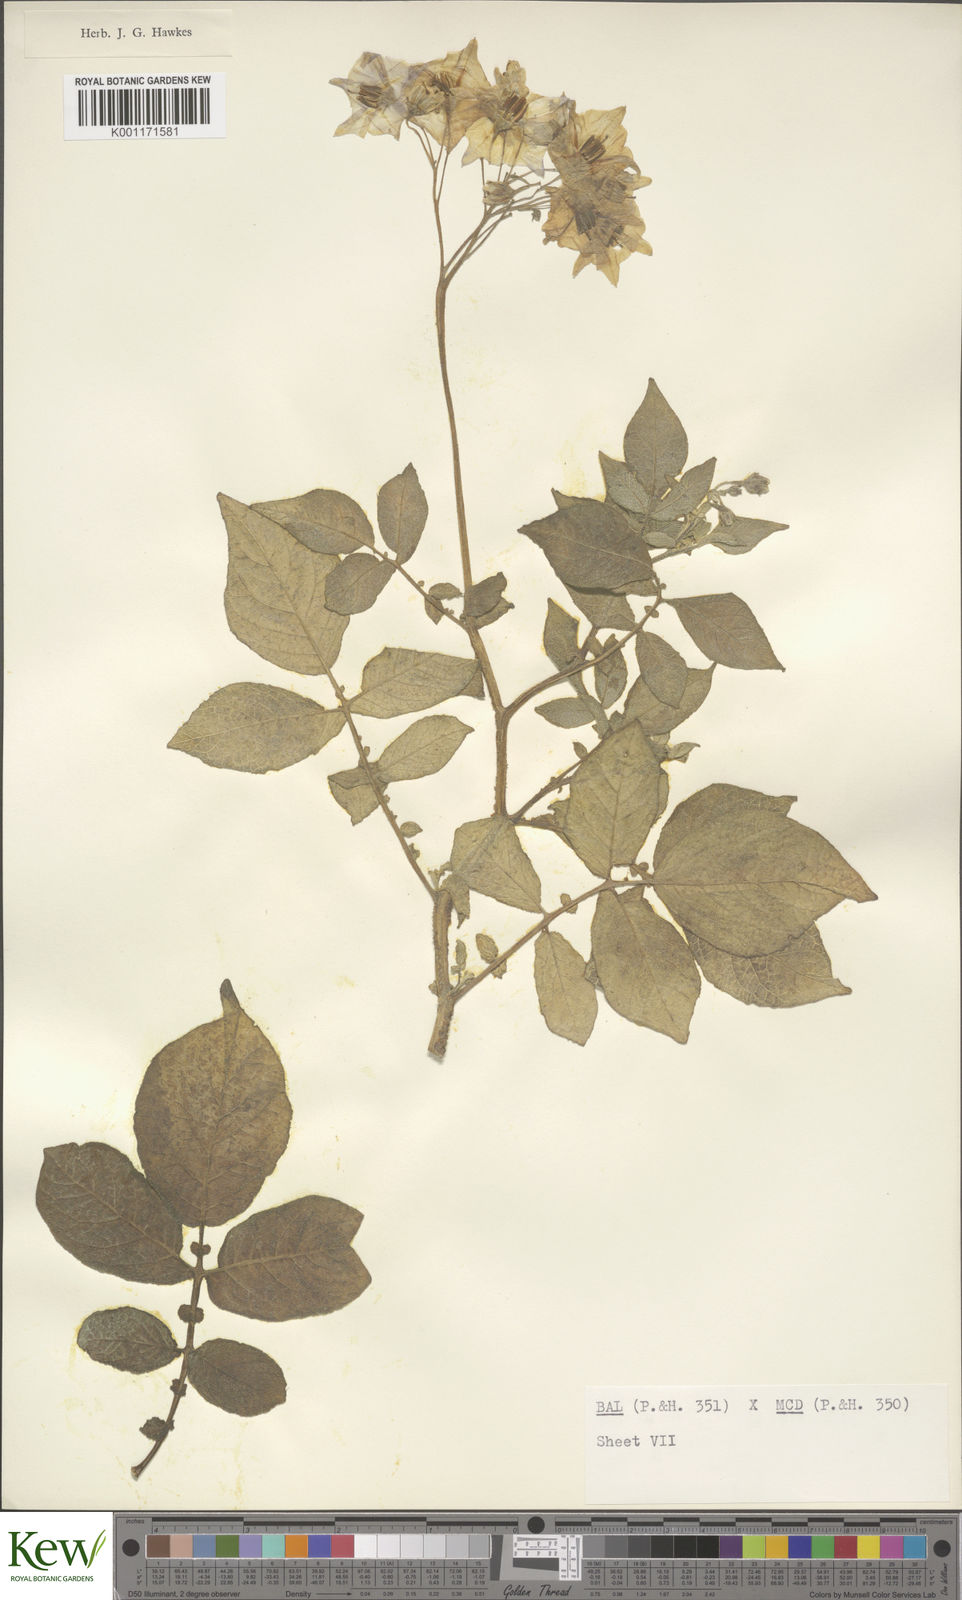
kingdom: Plantae
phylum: Tracheophyta
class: Magnoliopsida
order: Solanales
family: Solanaceae
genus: Solanum
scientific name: Solanum vernei
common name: Purple potato
